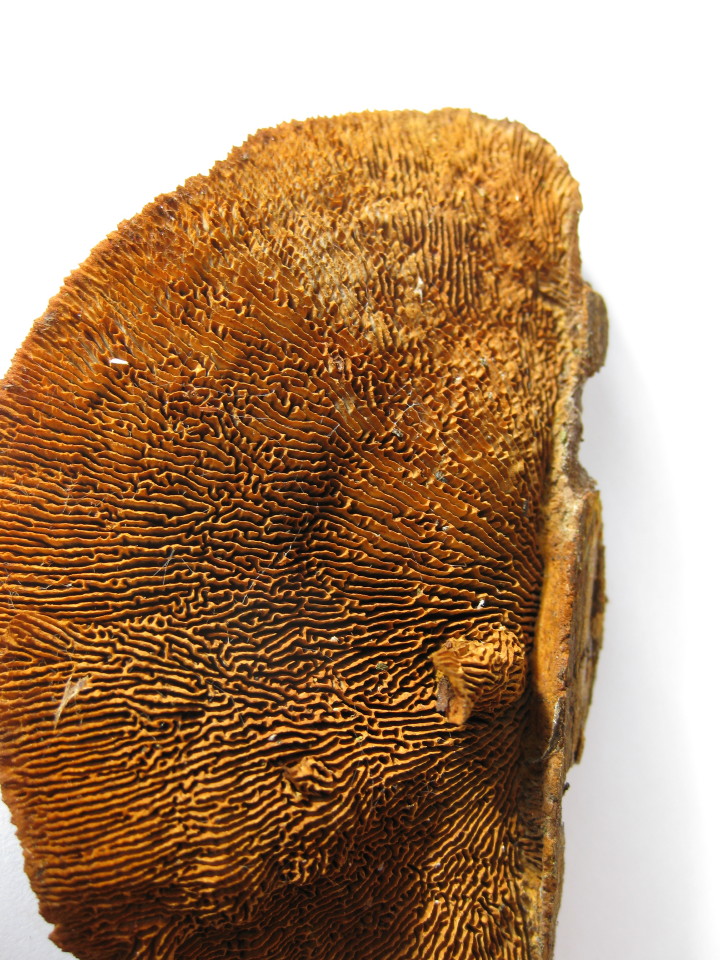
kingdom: Fungi
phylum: Basidiomycota
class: Agaricomycetes
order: Gloeophyllales
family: Gloeophyllaceae
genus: Gloeophyllum
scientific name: Gloeophyllum sepiarium
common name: fyrre-korkhat
